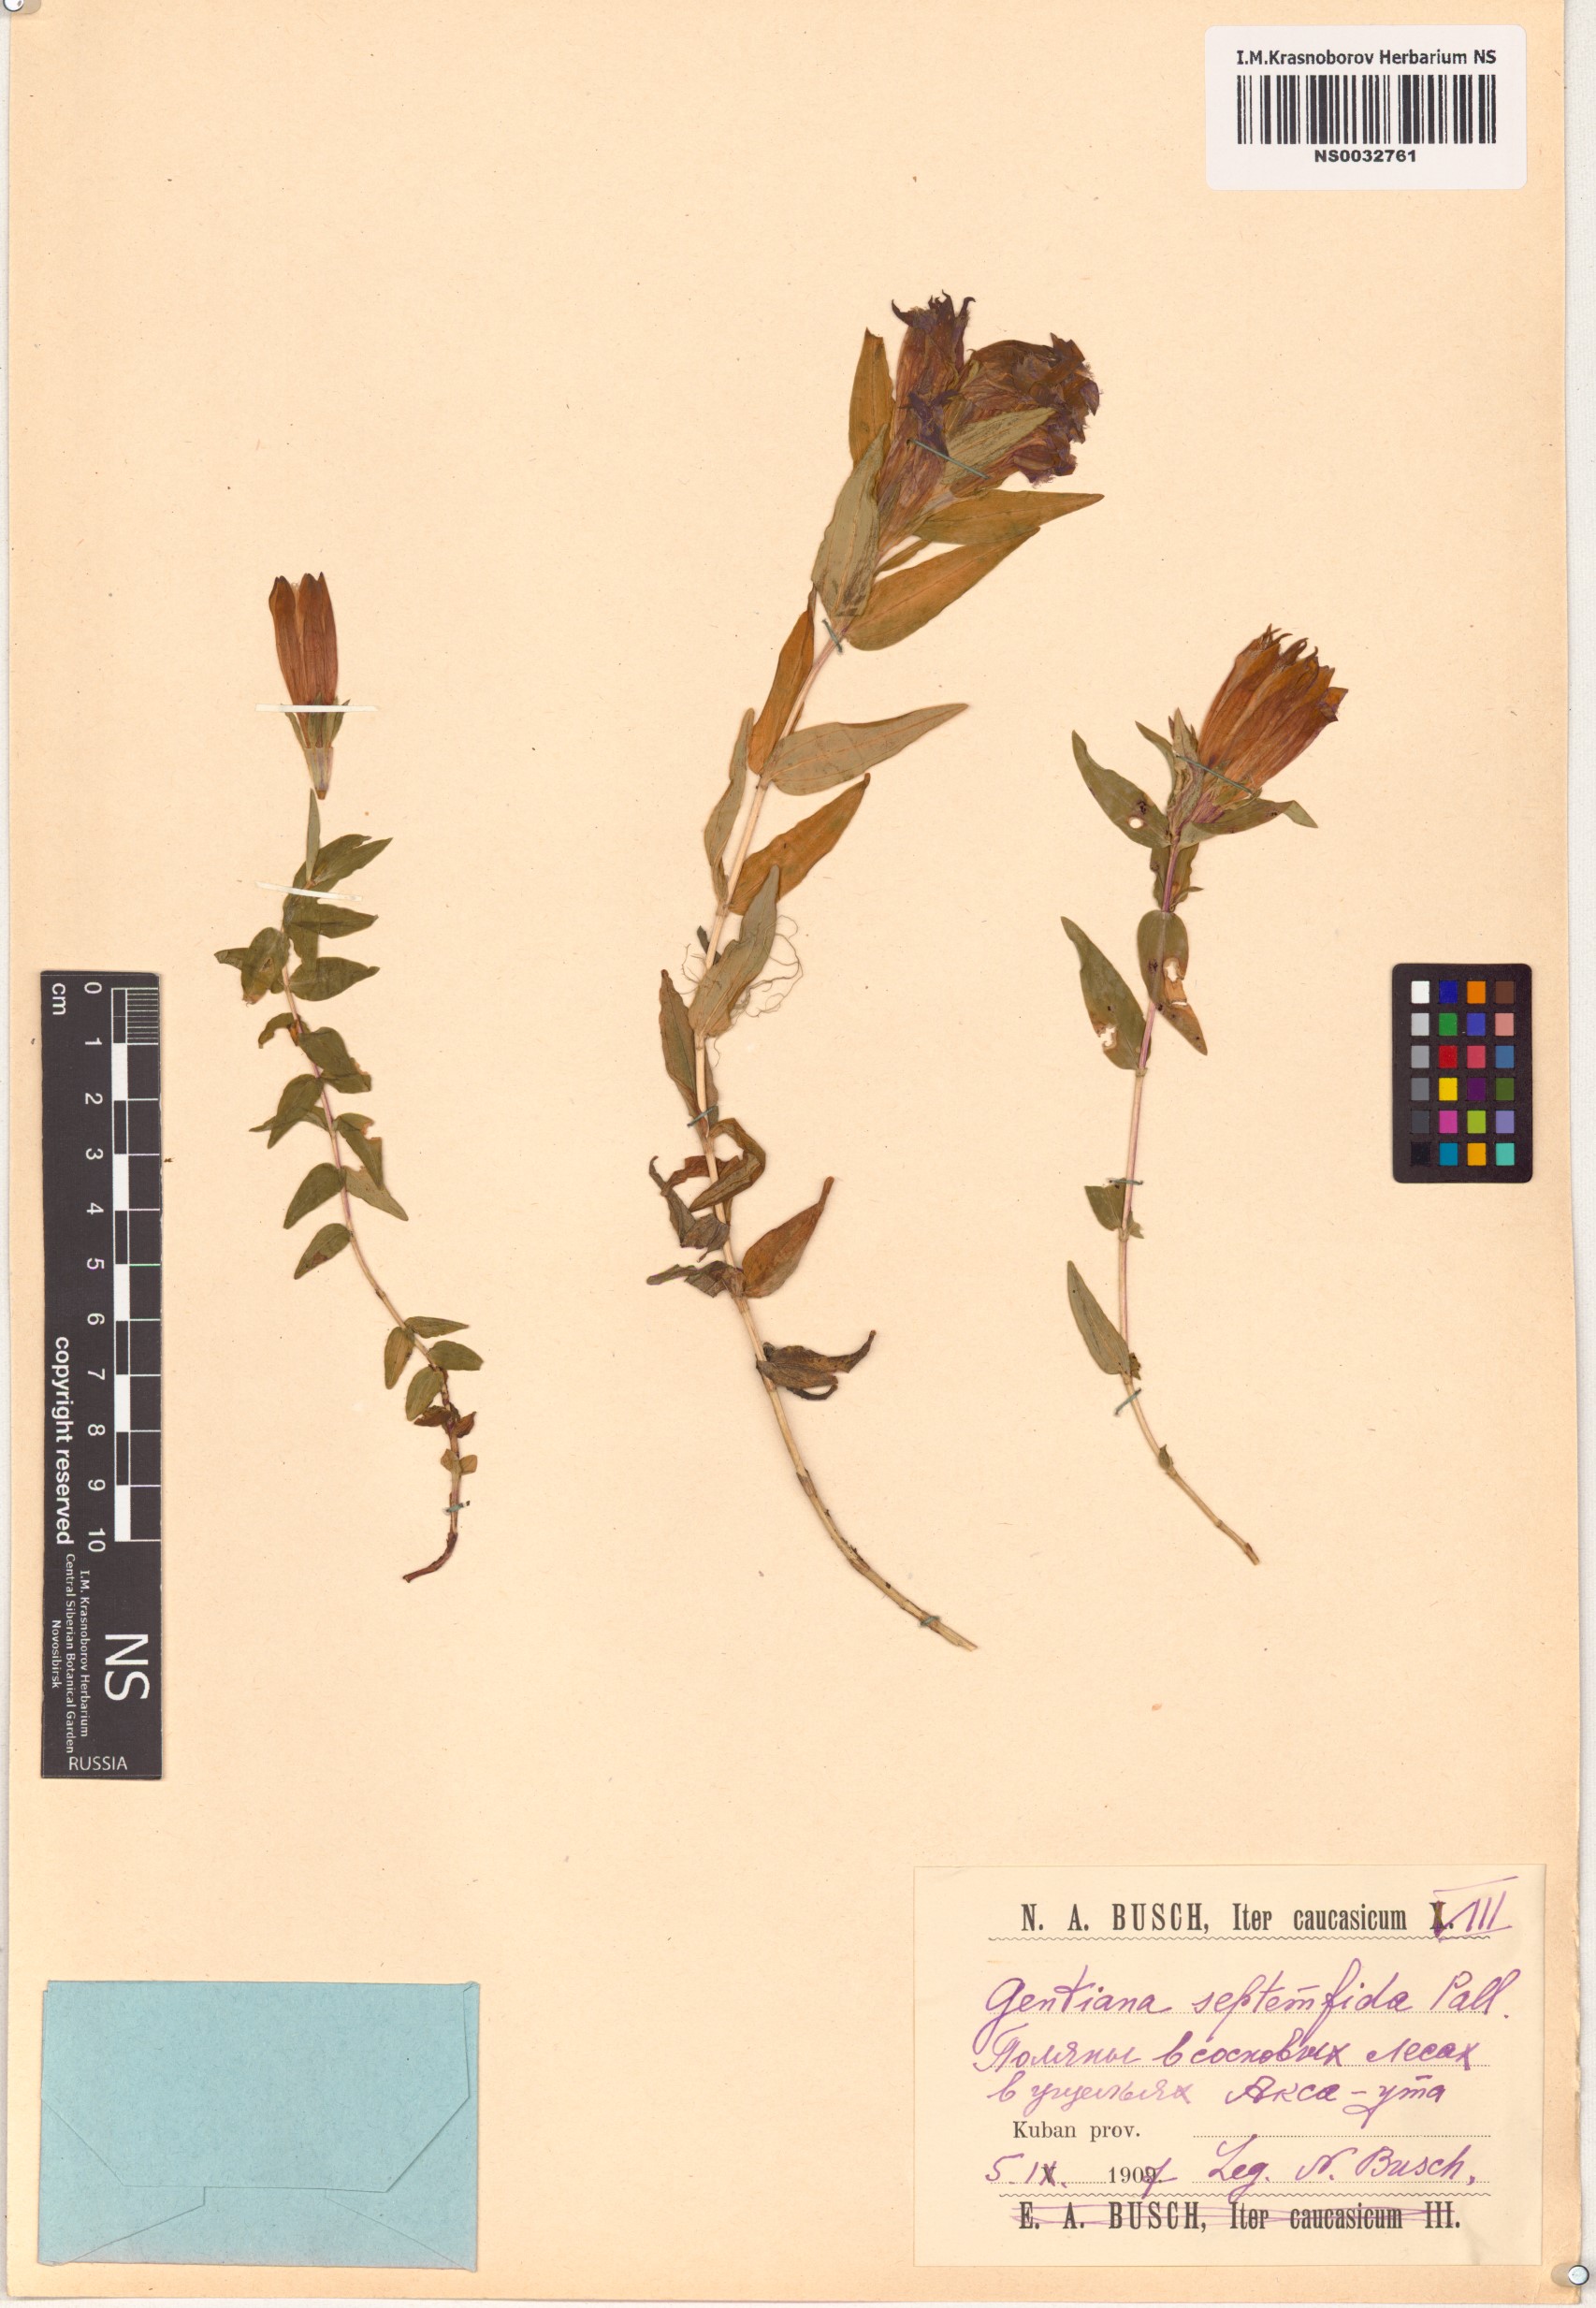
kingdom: Plantae
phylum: Tracheophyta
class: Magnoliopsida
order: Gentianales
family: Gentianaceae
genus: Gentiana
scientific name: Gentiana septemfida
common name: Crested gentian
